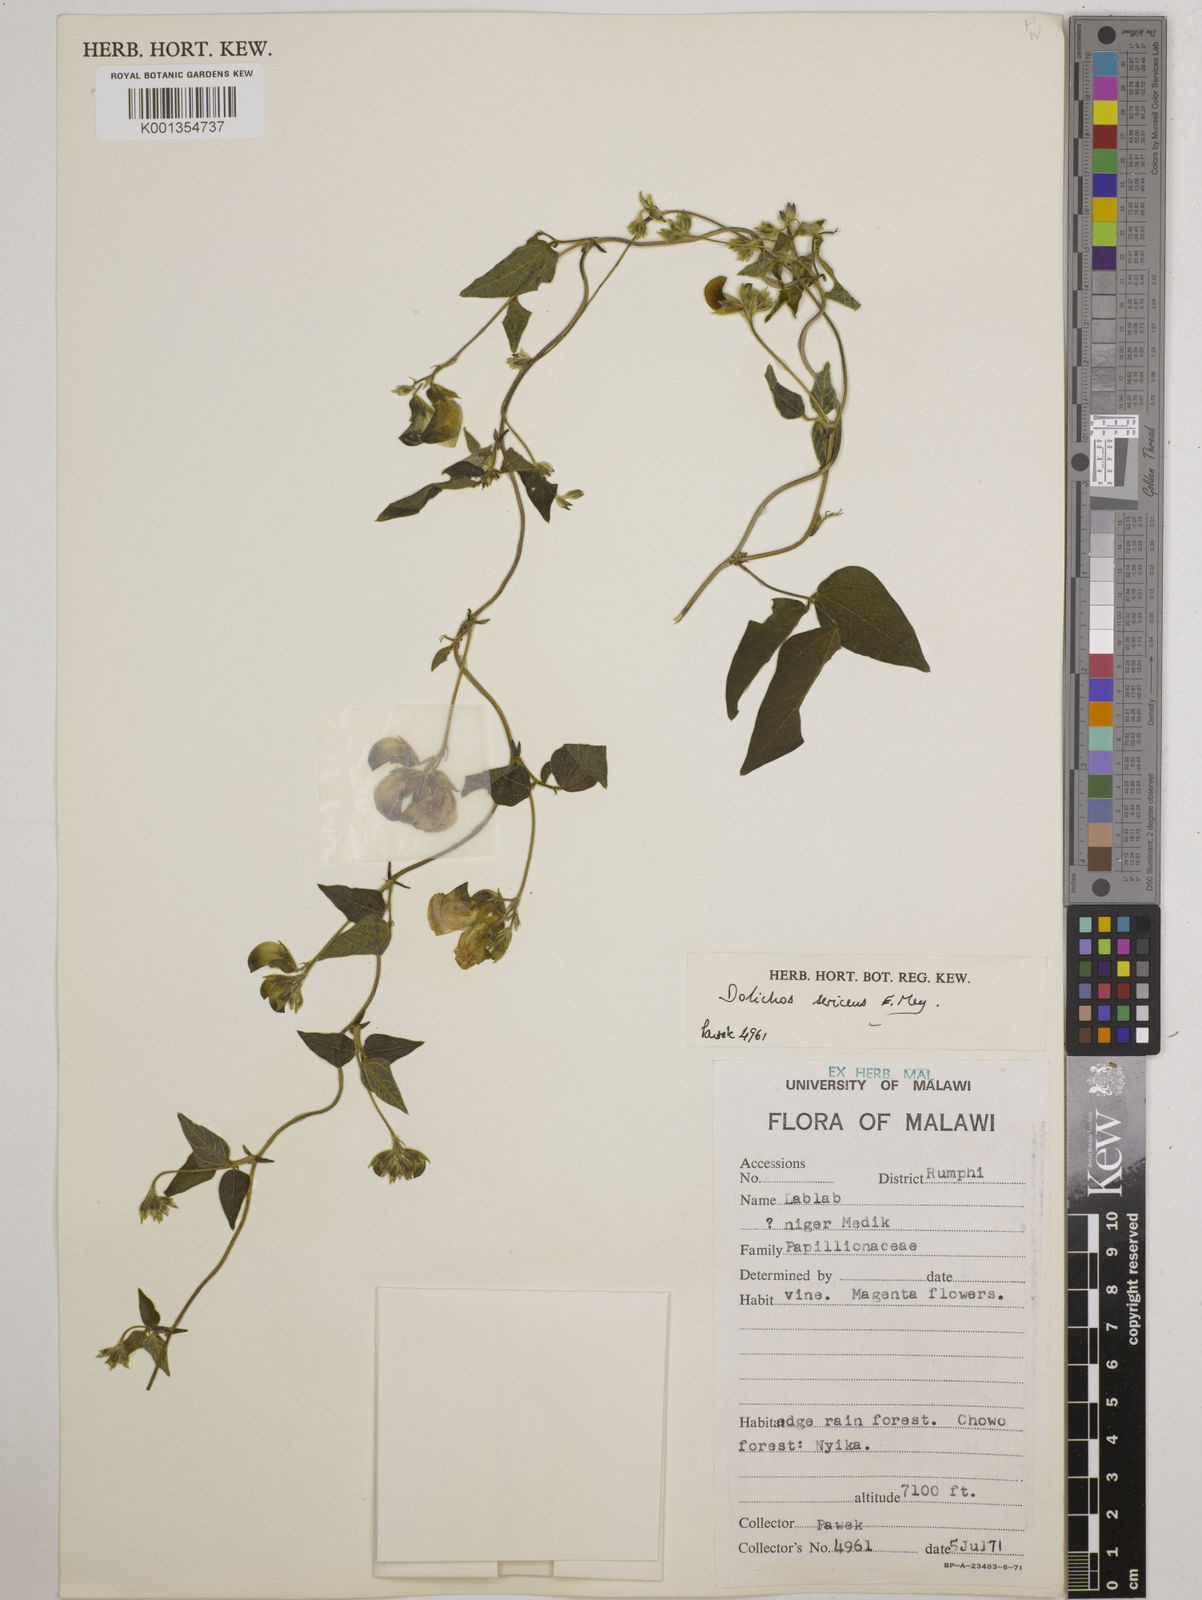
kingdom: Plantae
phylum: Tracheophyta
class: Magnoliopsida
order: Fabales
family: Fabaceae
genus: Dolichos
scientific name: Dolichos
